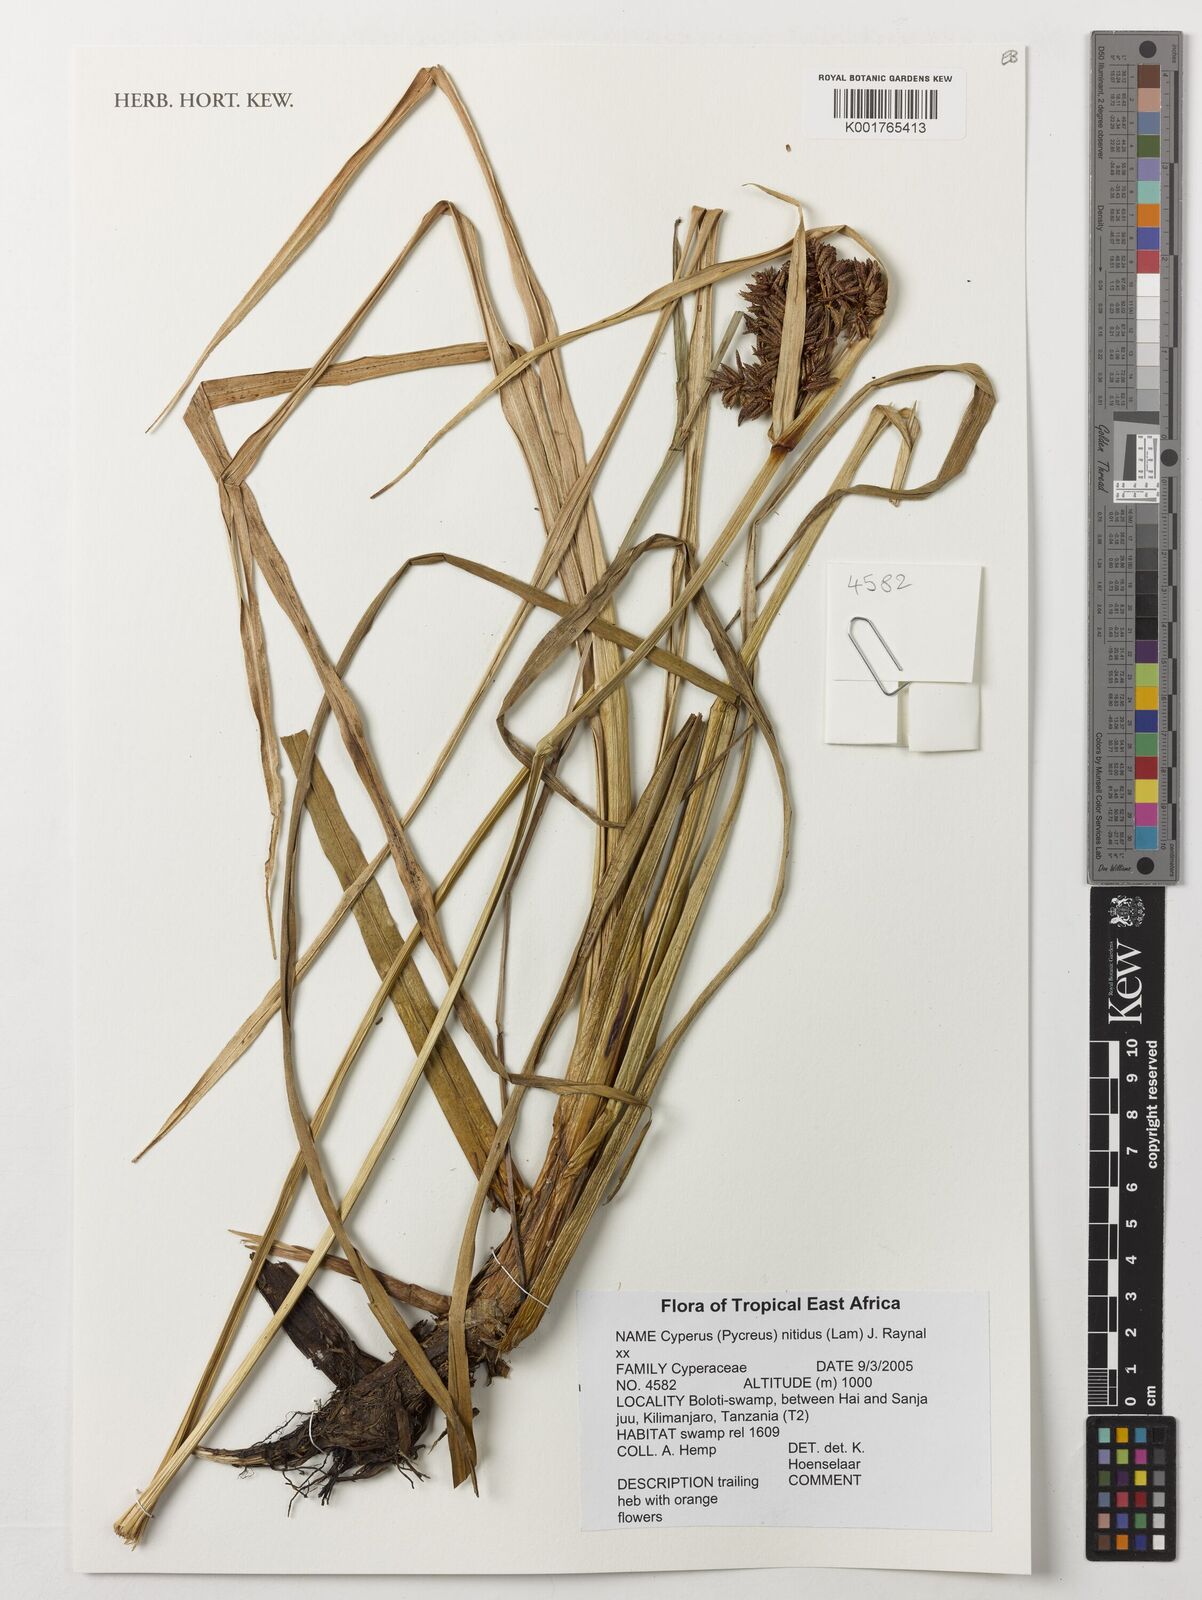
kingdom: Plantae
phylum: Tracheophyta
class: Liliopsida
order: Poales
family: Cyperaceae
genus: Cyperus
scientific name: Cyperus nitidus
